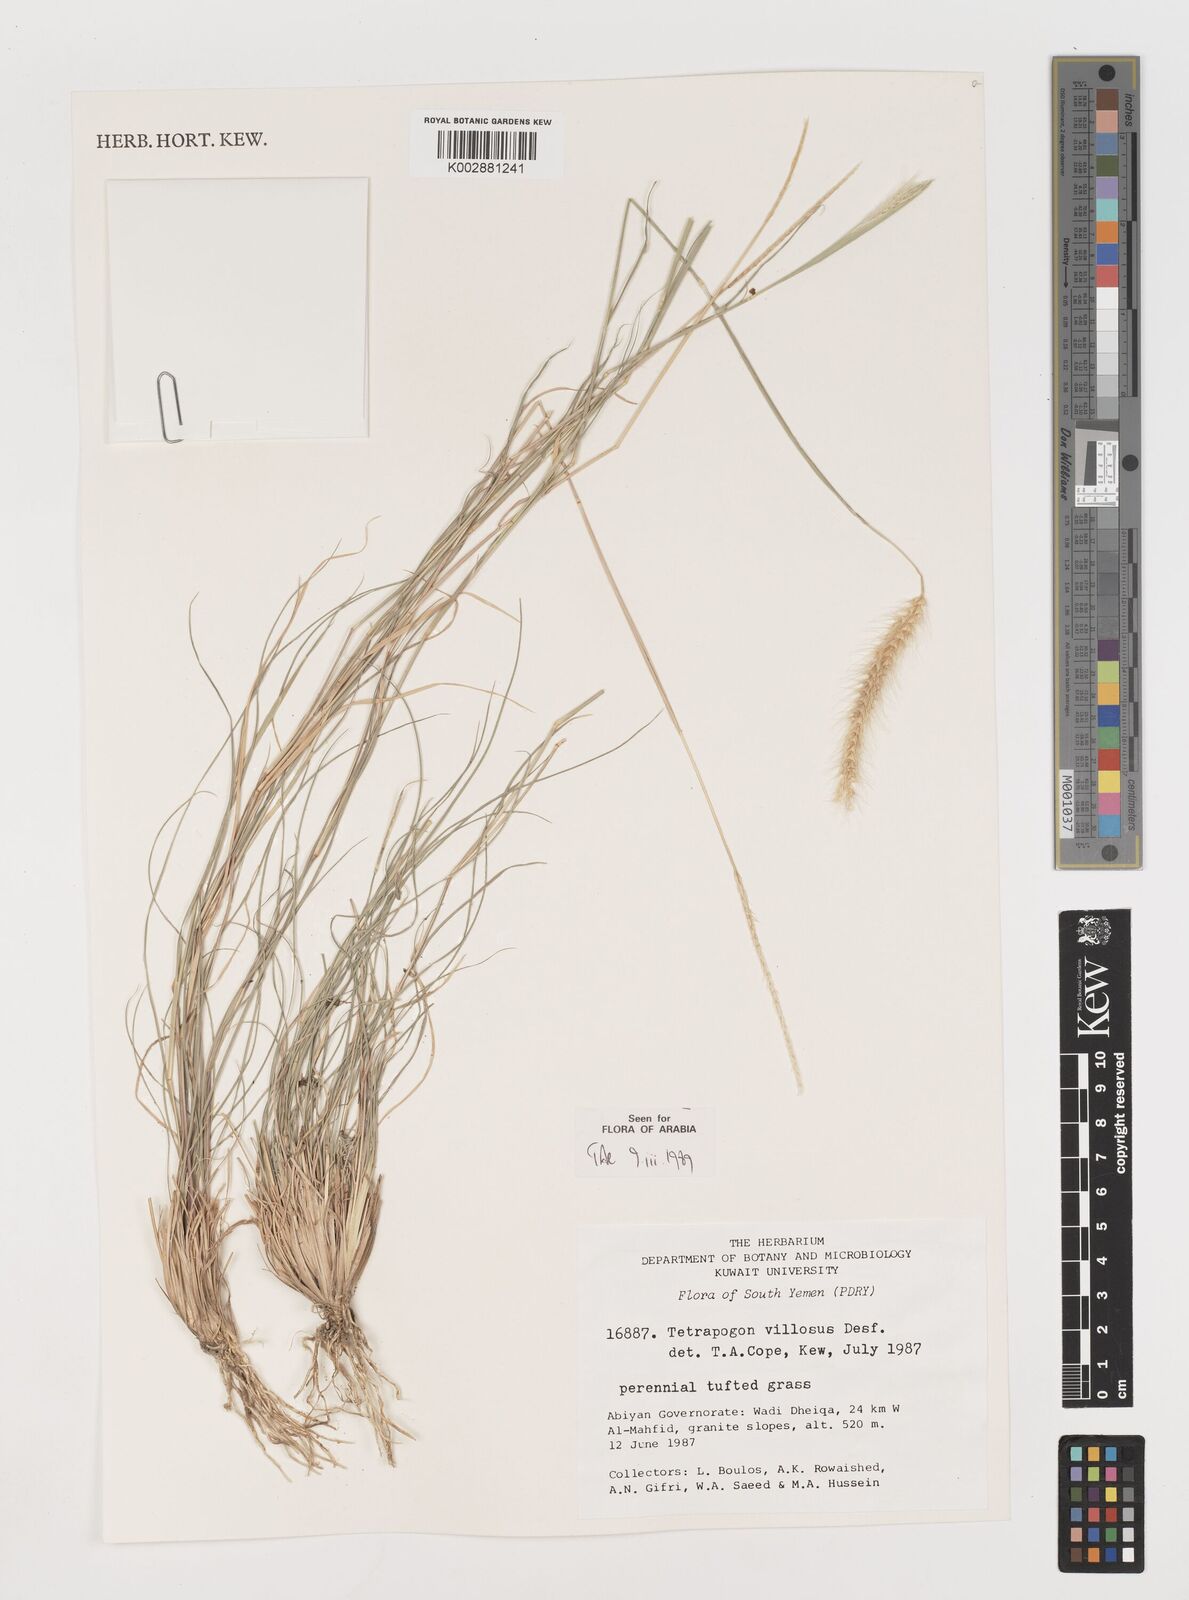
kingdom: Plantae
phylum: Tracheophyta
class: Liliopsida
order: Poales
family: Poaceae
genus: Tetrapogon
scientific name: Tetrapogon villosus
